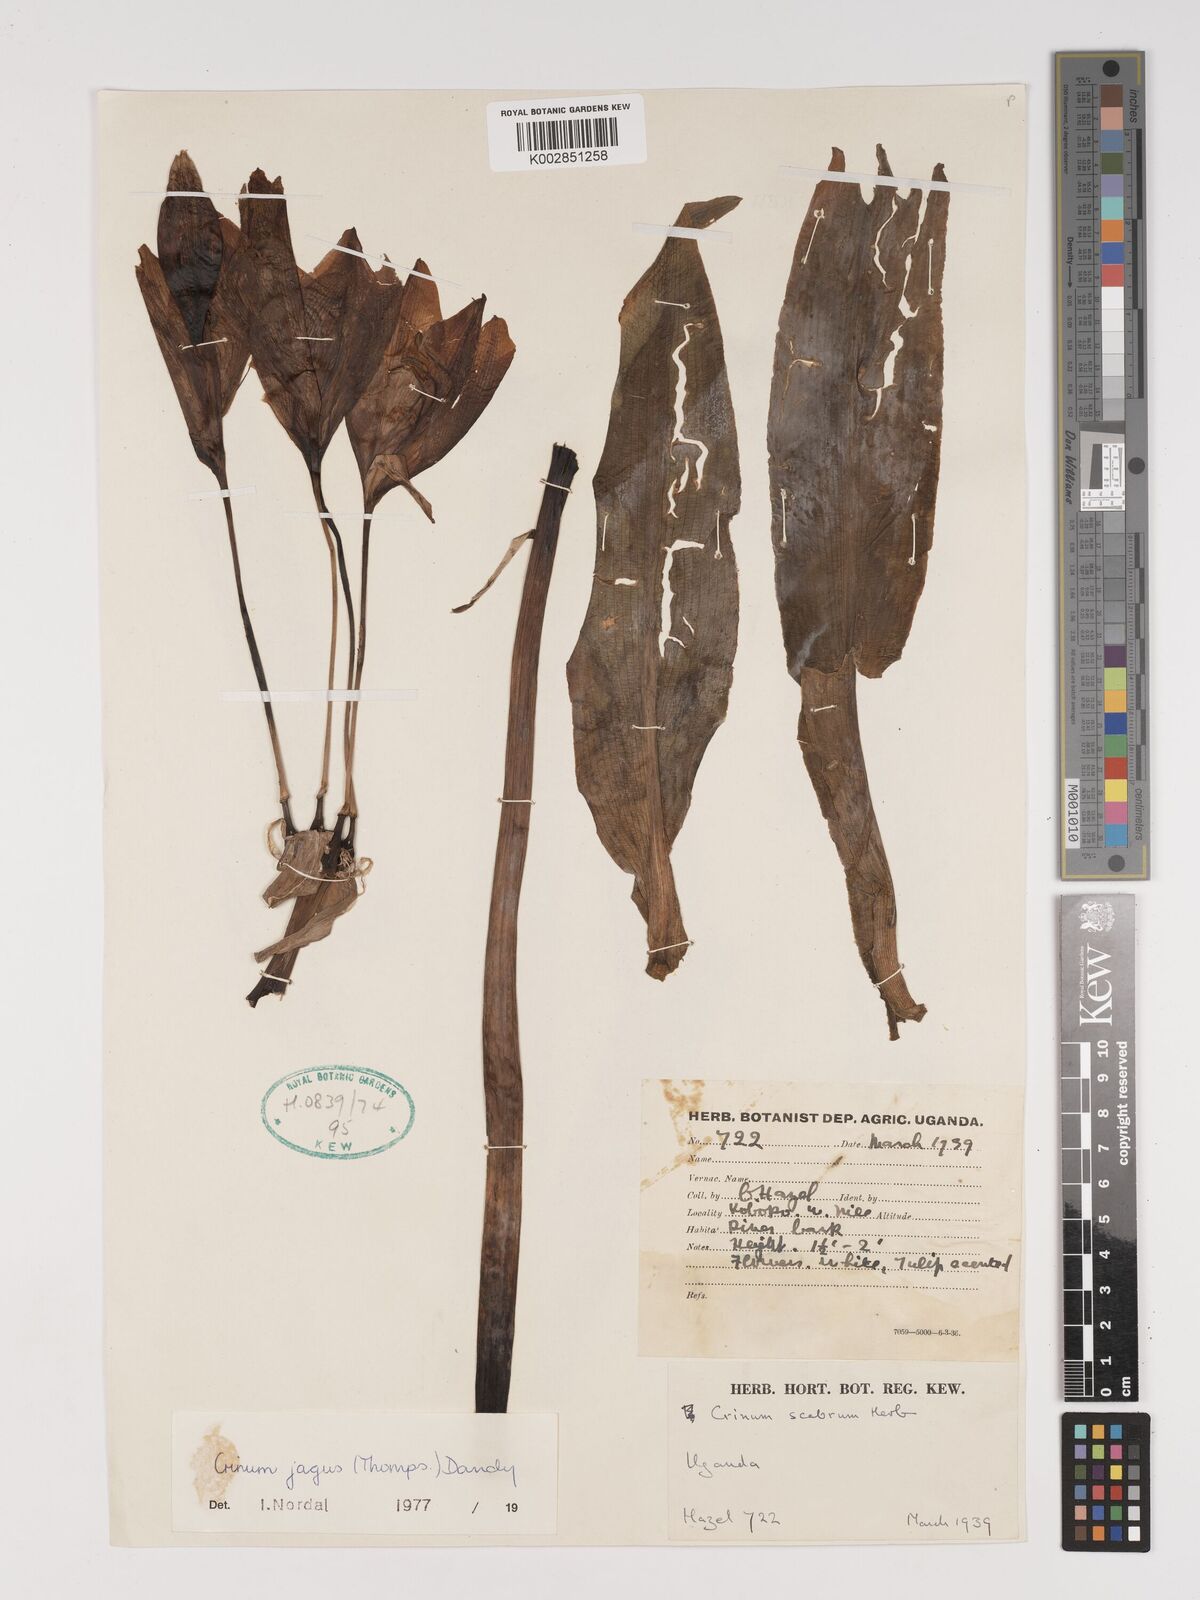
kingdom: Plantae
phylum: Tracheophyta
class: Liliopsida
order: Asparagales
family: Amaryllidaceae
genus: Crinum
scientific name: Crinum jagus
